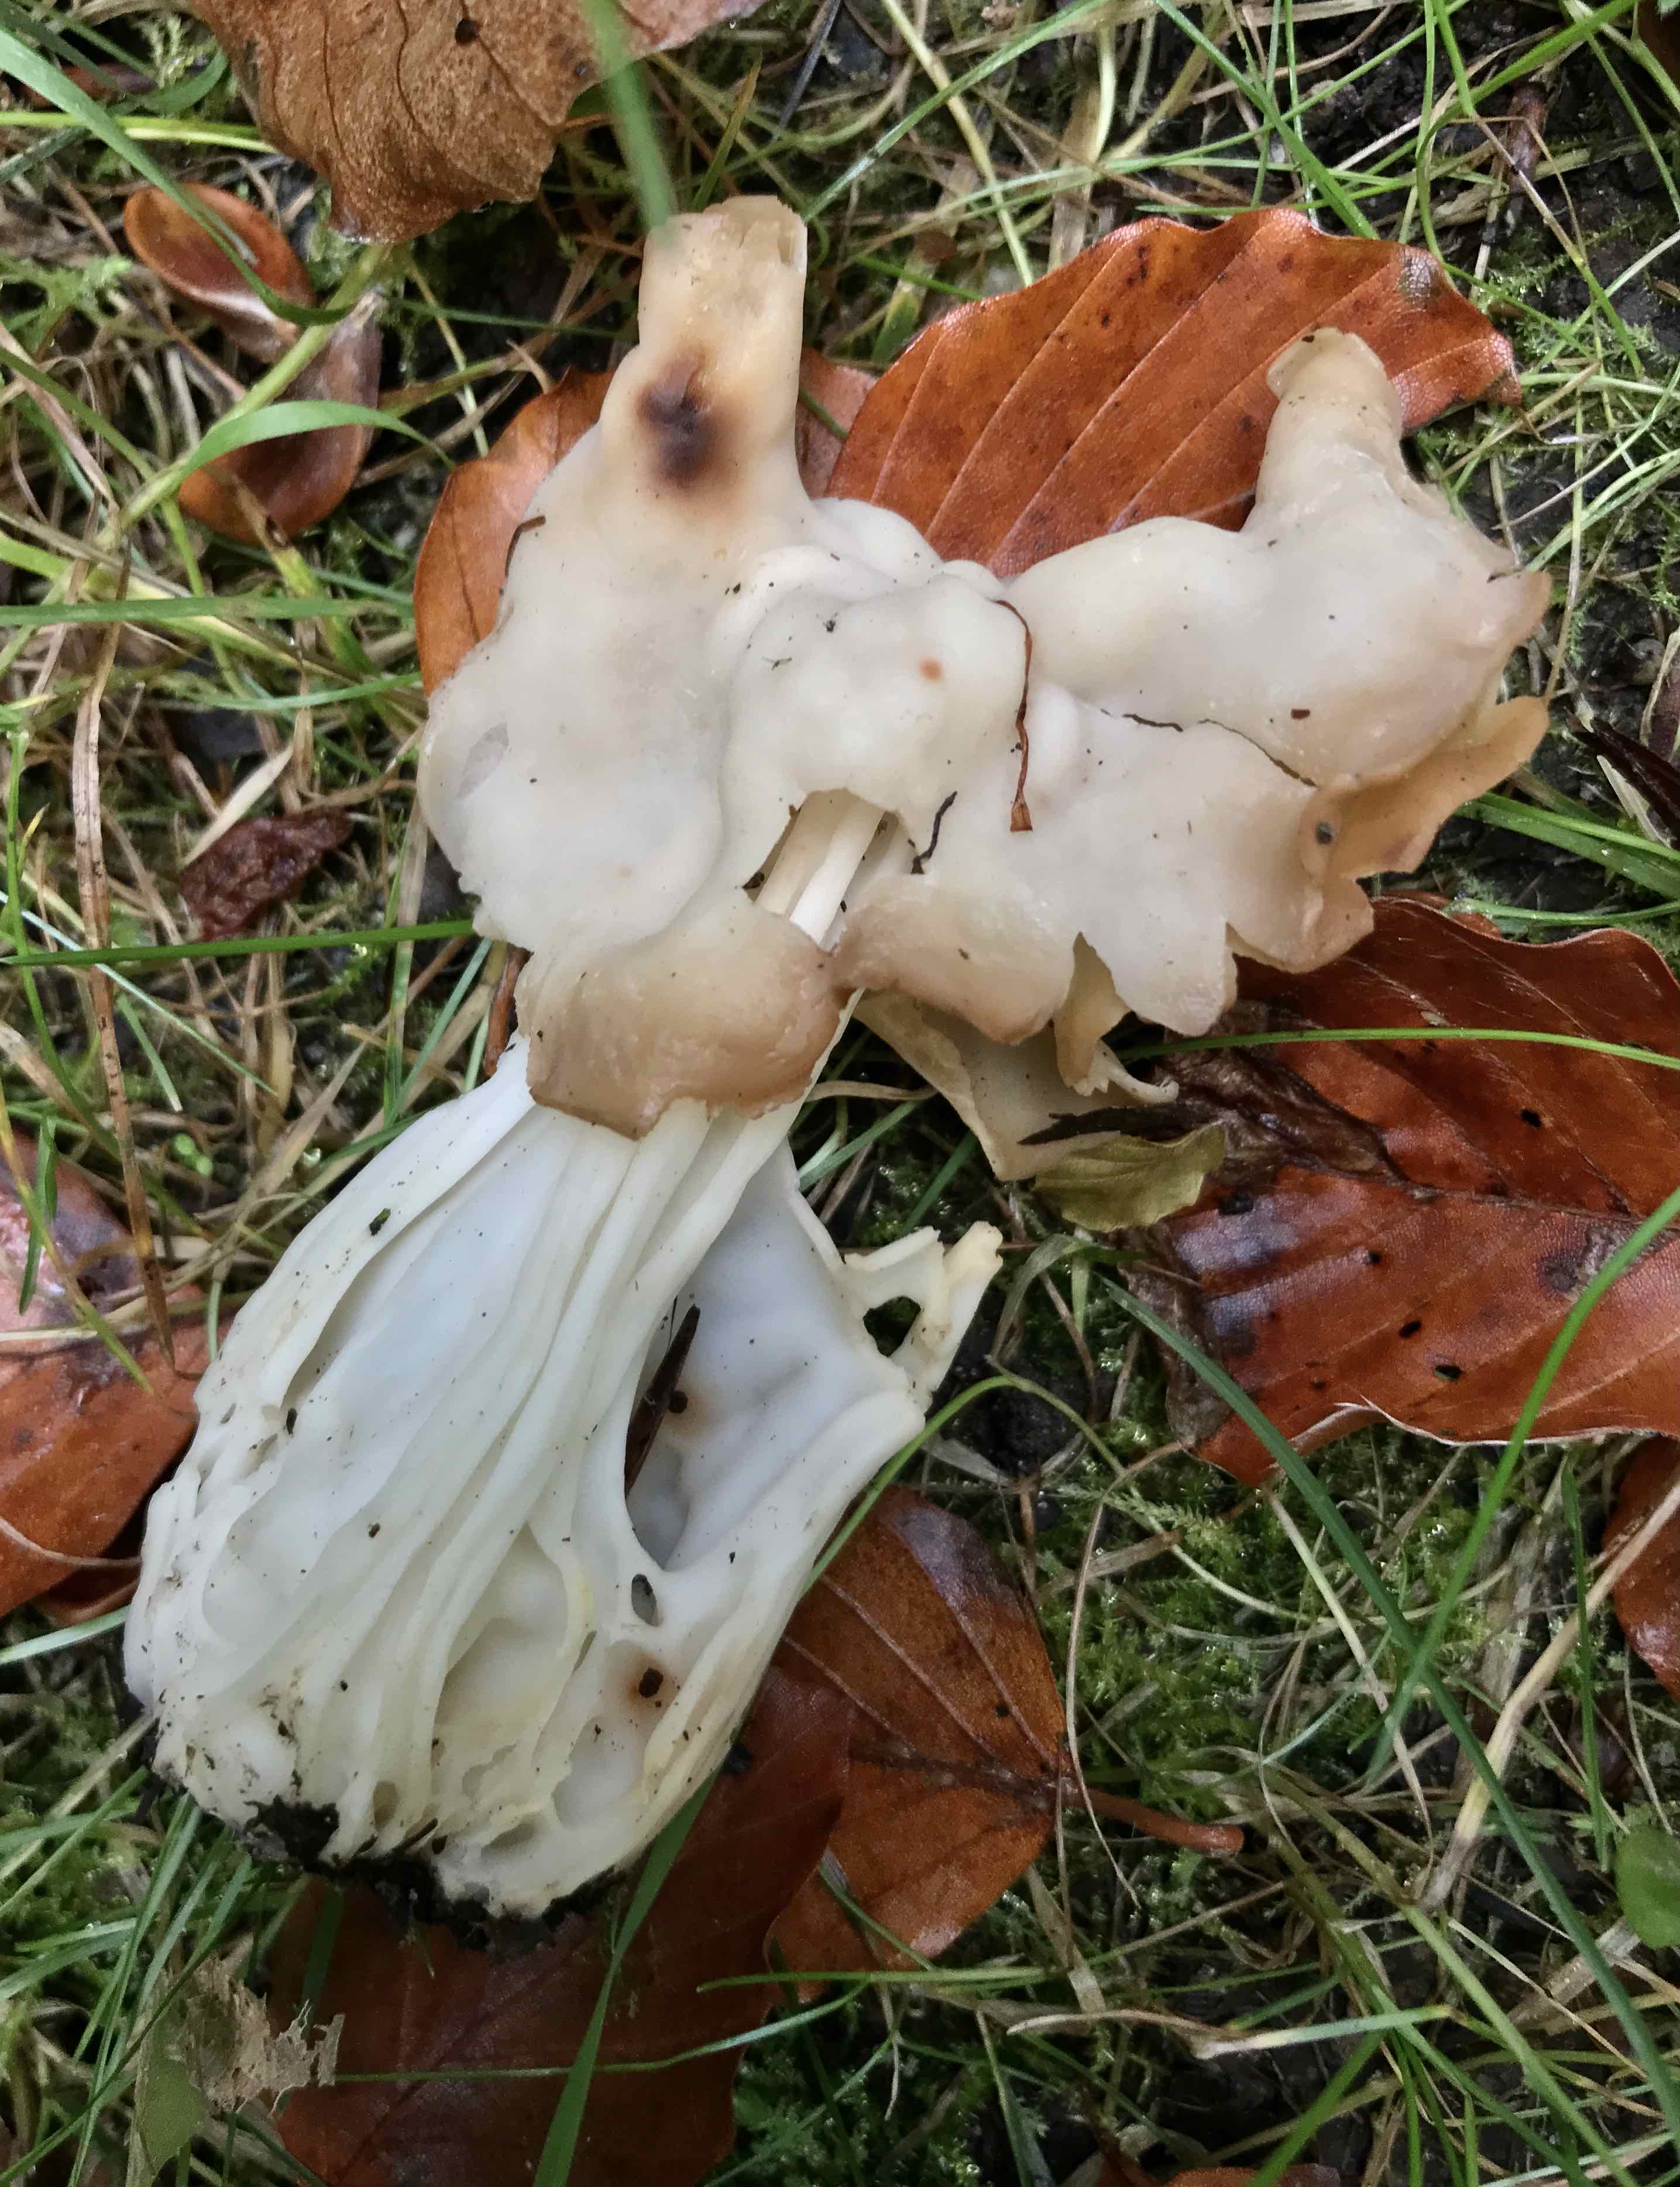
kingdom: Fungi
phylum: Ascomycota
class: Pezizomycetes
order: Pezizales
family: Helvellaceae
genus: Helvella
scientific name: Helvella crispa
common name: kruset foldhat
